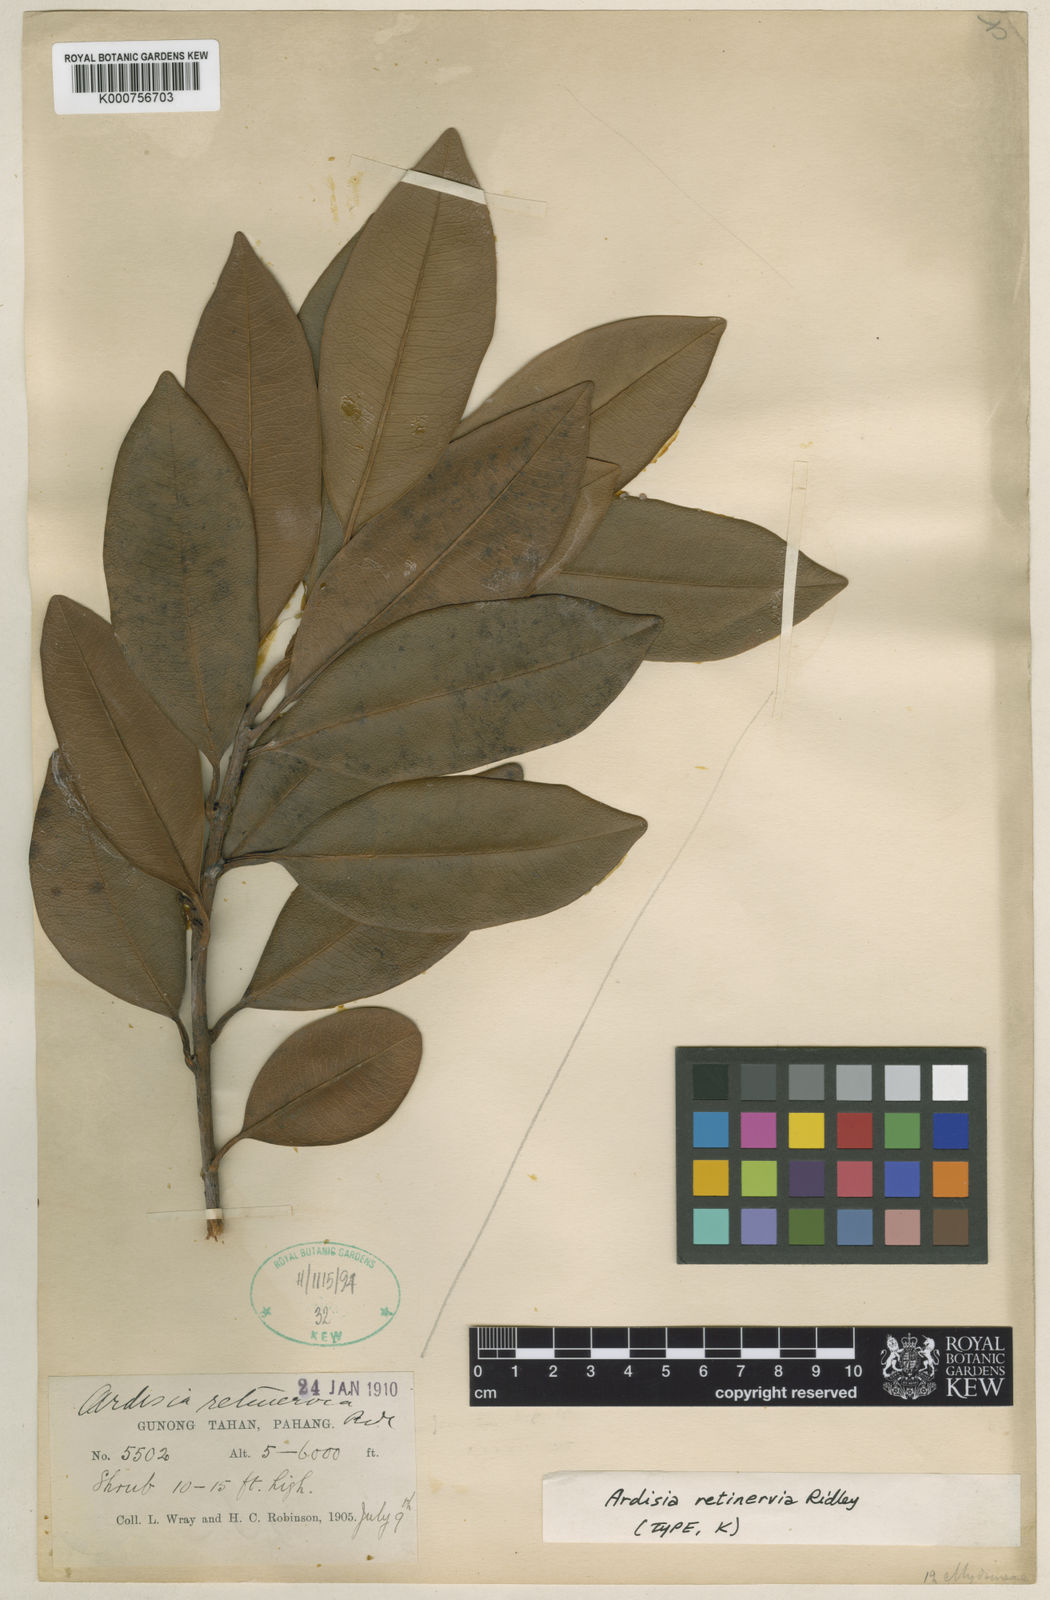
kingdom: Plantae
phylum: Tracheophyta
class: Magnoliopsida
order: Ericales
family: Primulaceae
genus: Ardisia
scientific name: Ardisia retinervia
